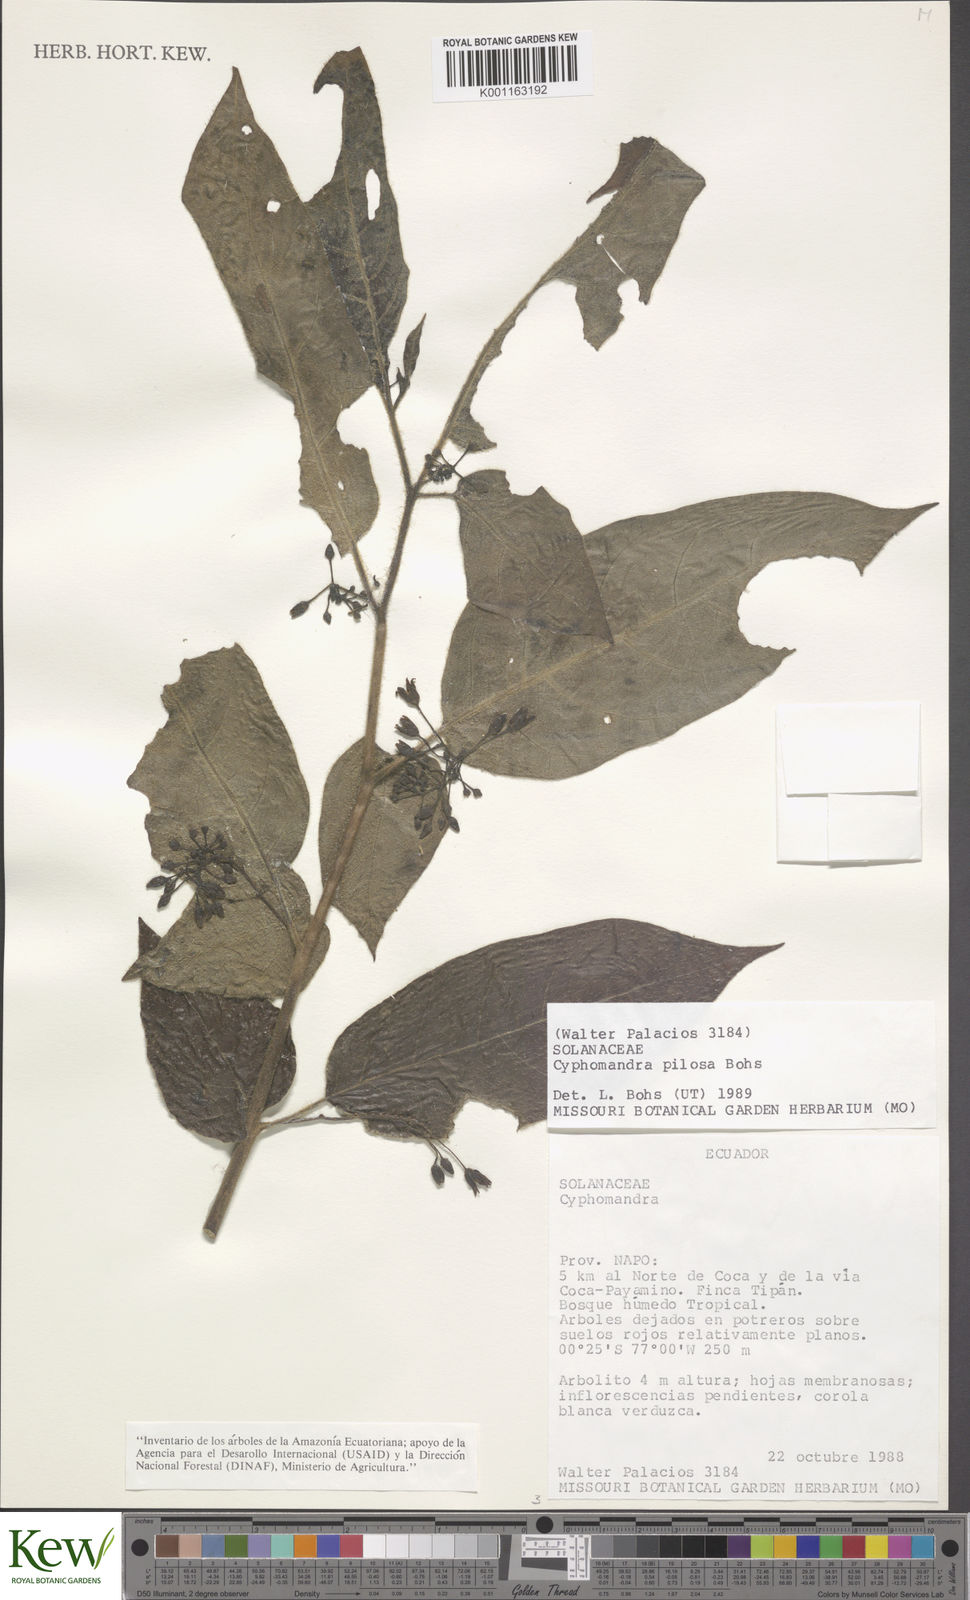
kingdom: Plantae
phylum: Tracheophyta
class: Magnoliopsida
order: Solanales
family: Solanaceae
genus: Solanum
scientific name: Solanum calidum
